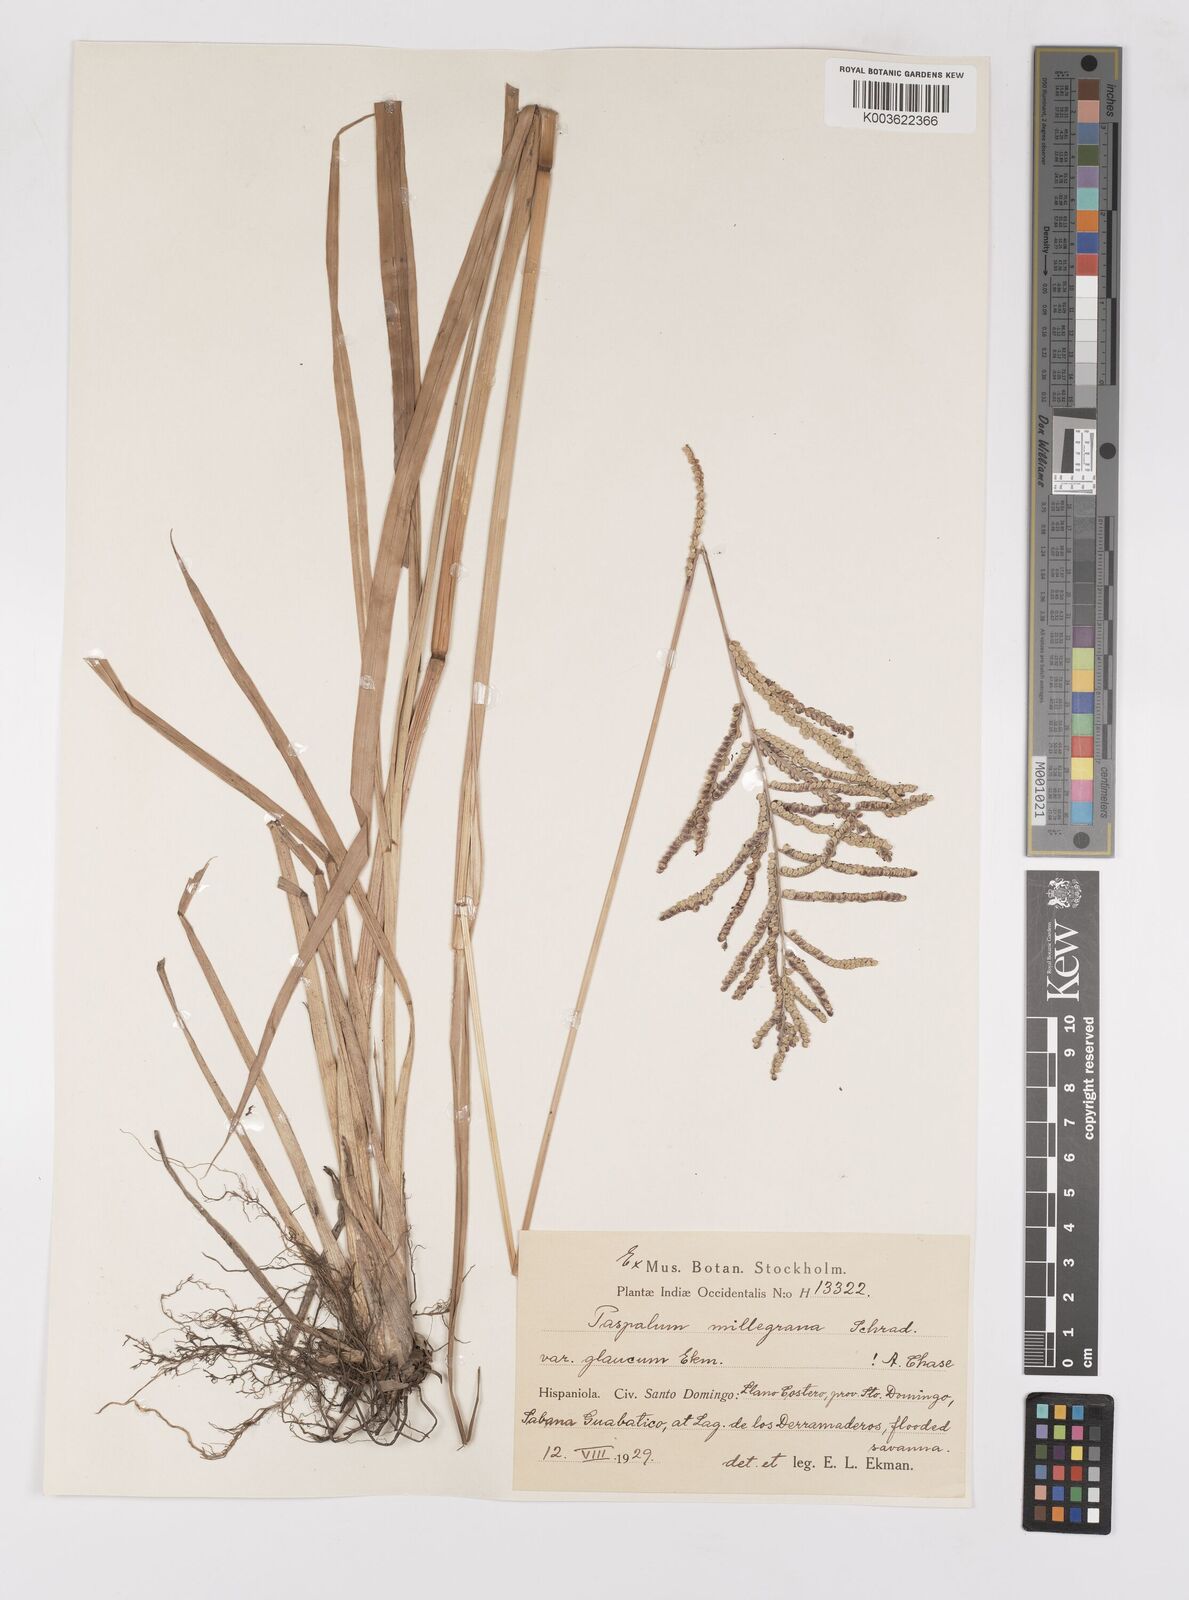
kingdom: Plantae
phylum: Tracheophyta
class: Liliopsida
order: Poales
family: Poaceae
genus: Paspalum
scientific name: Paspalum millegranum
